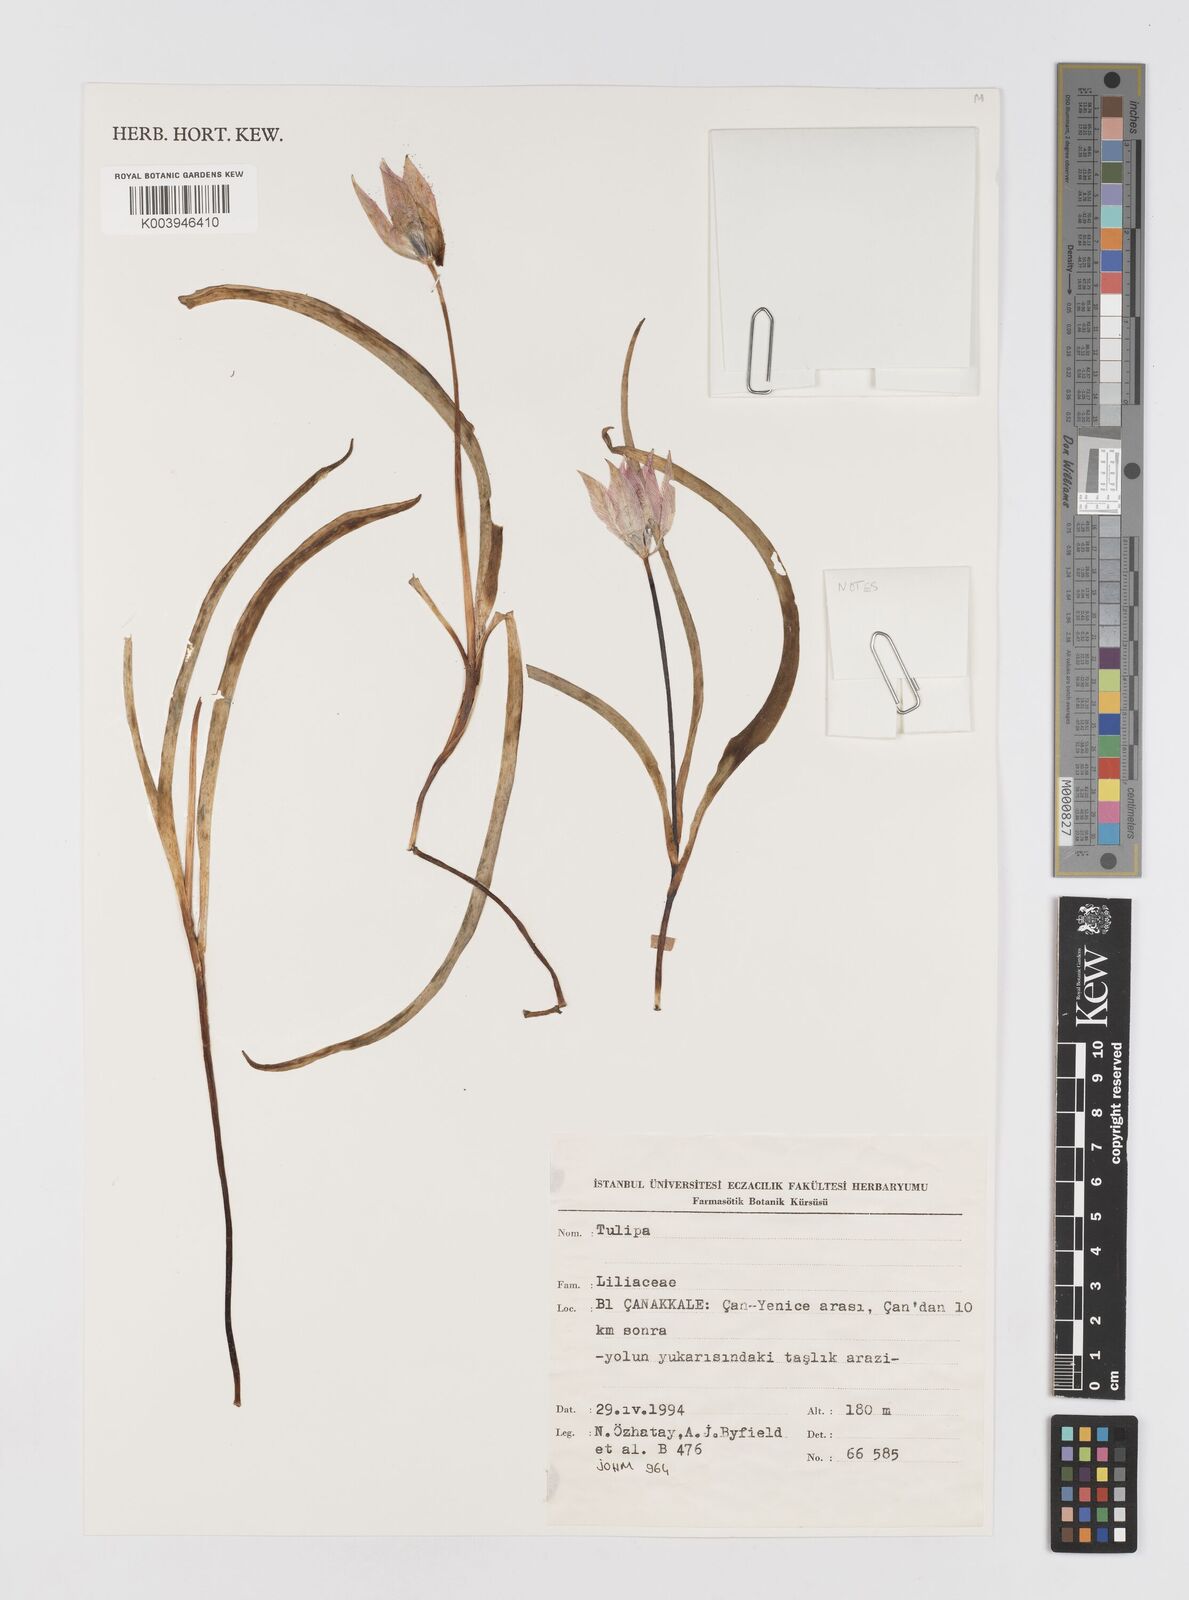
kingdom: Plantae
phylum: Tracheophyta
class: Liliopsida
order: Liliales
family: Liliaceae
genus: Tulipa
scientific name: Tulipa
